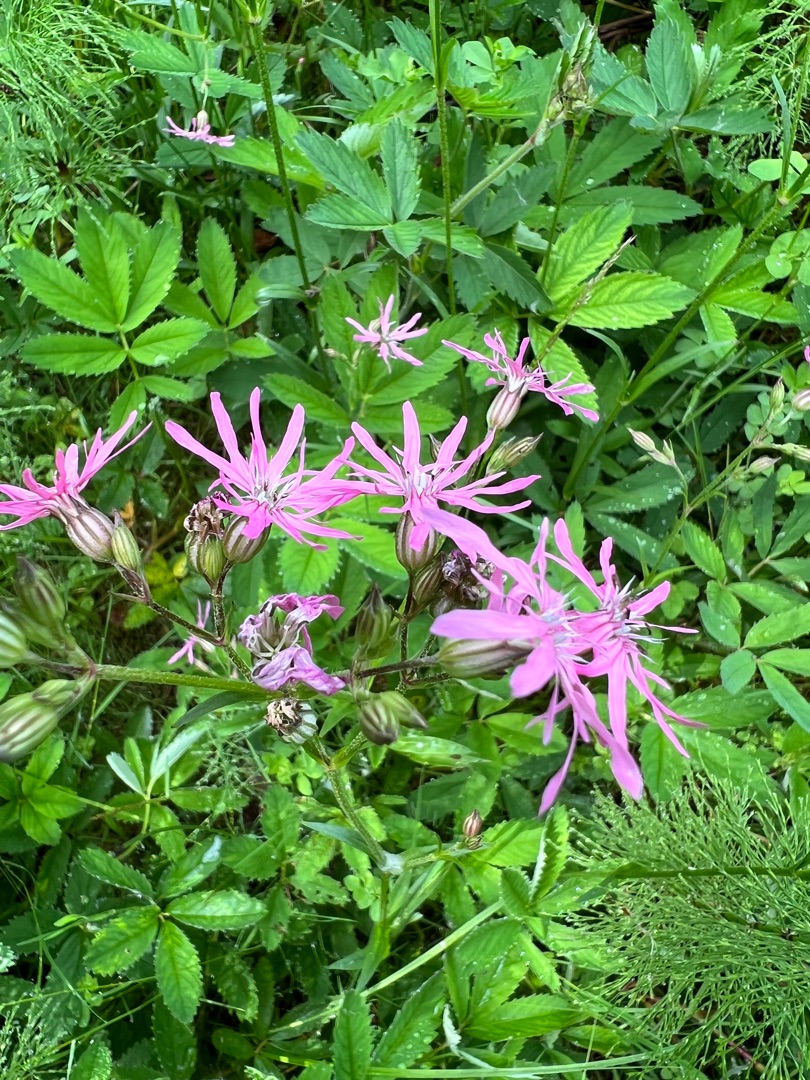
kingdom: Plantae
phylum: Tracheophyta
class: Magnoliopsida
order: Caryophyllales
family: Caryophyllaceae
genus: Silene
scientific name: Silene flos-cuculi
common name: Trævlekrone
